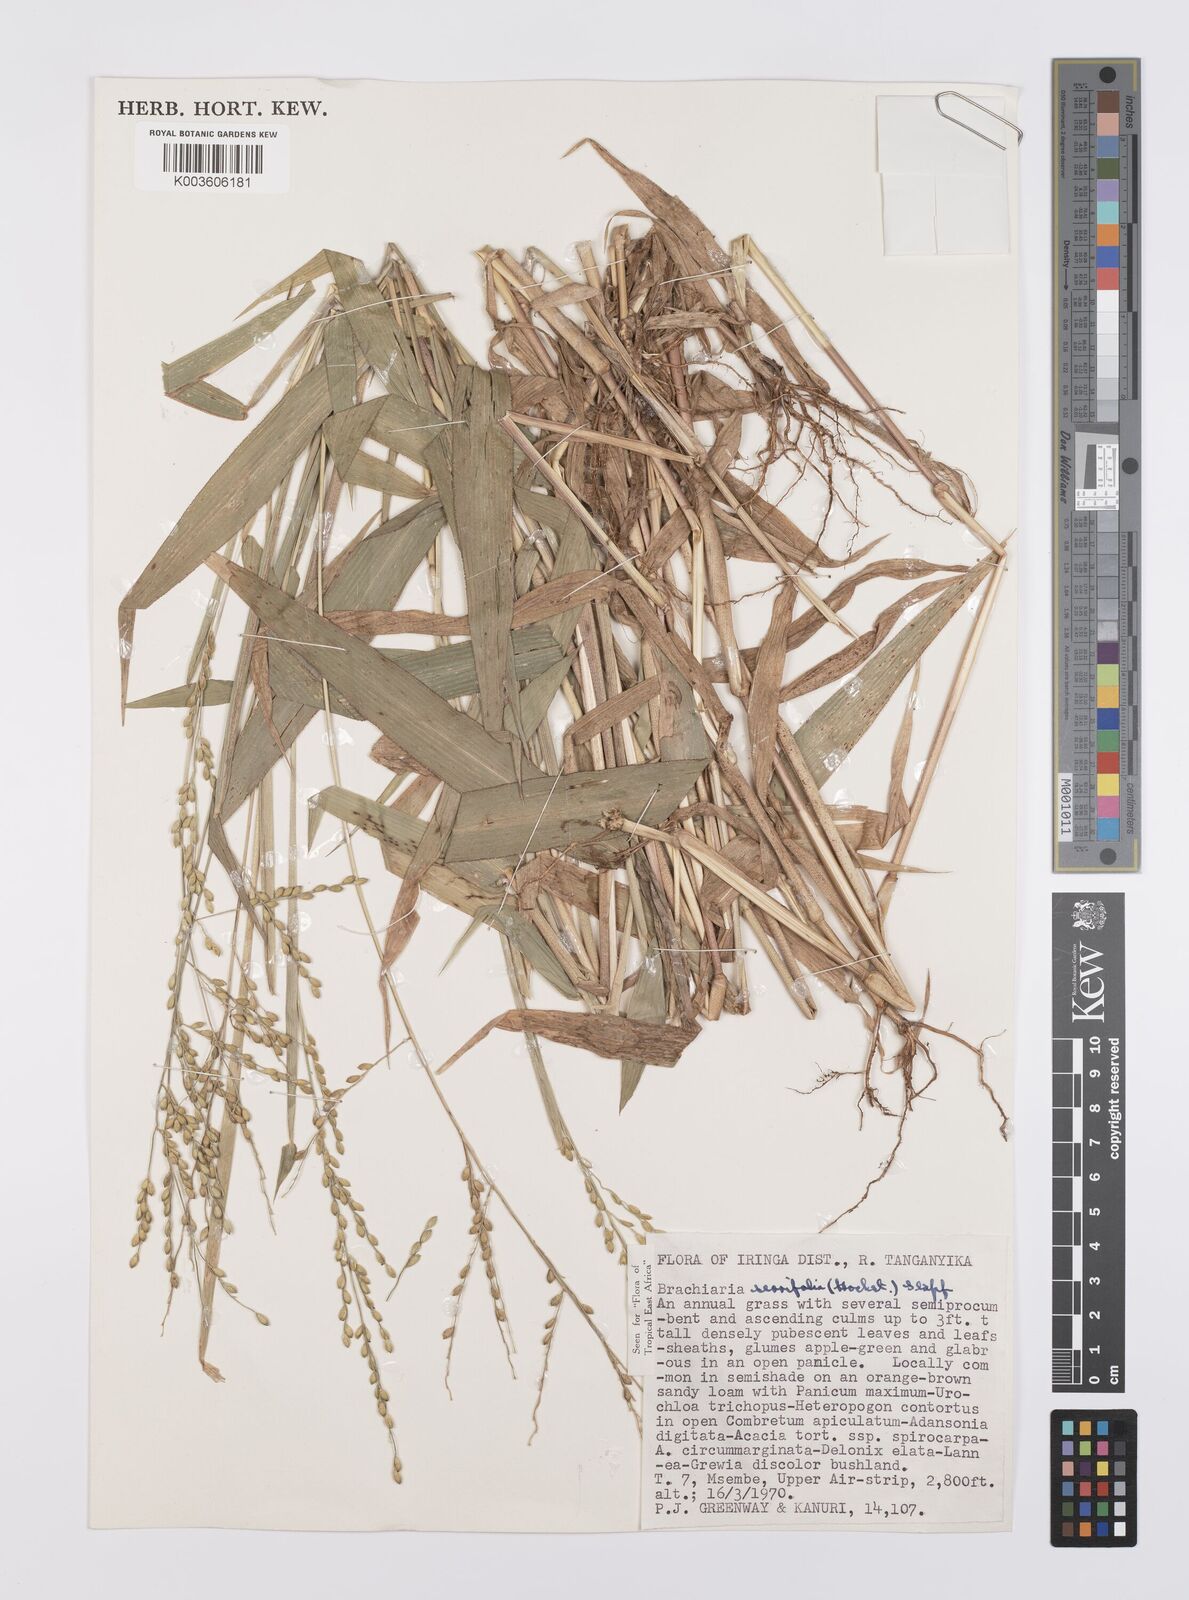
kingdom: Plantae
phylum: Tracheophyta
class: Liliopsida
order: Poales
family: Poaceae
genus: Urochloa
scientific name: Urochloa serrifolia
